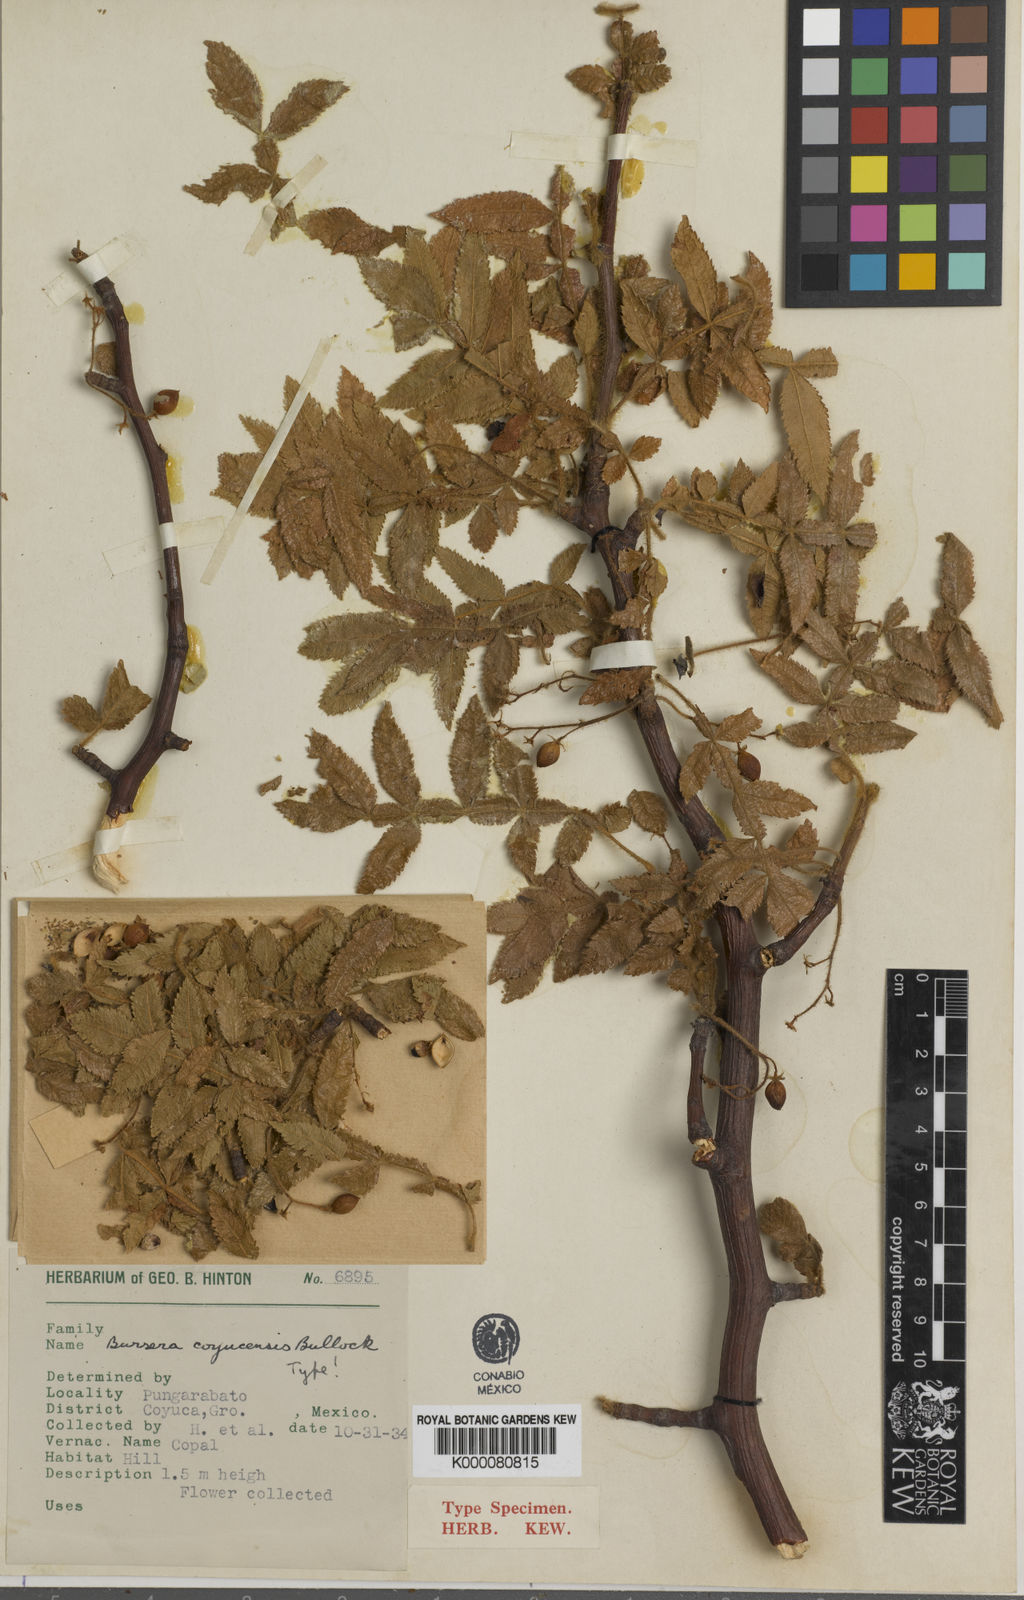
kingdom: Plantae
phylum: Tracheophyta
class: Magnoliopsida
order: Sapindales
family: Burseraceae
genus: Bursera
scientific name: Bursera coyucensis
